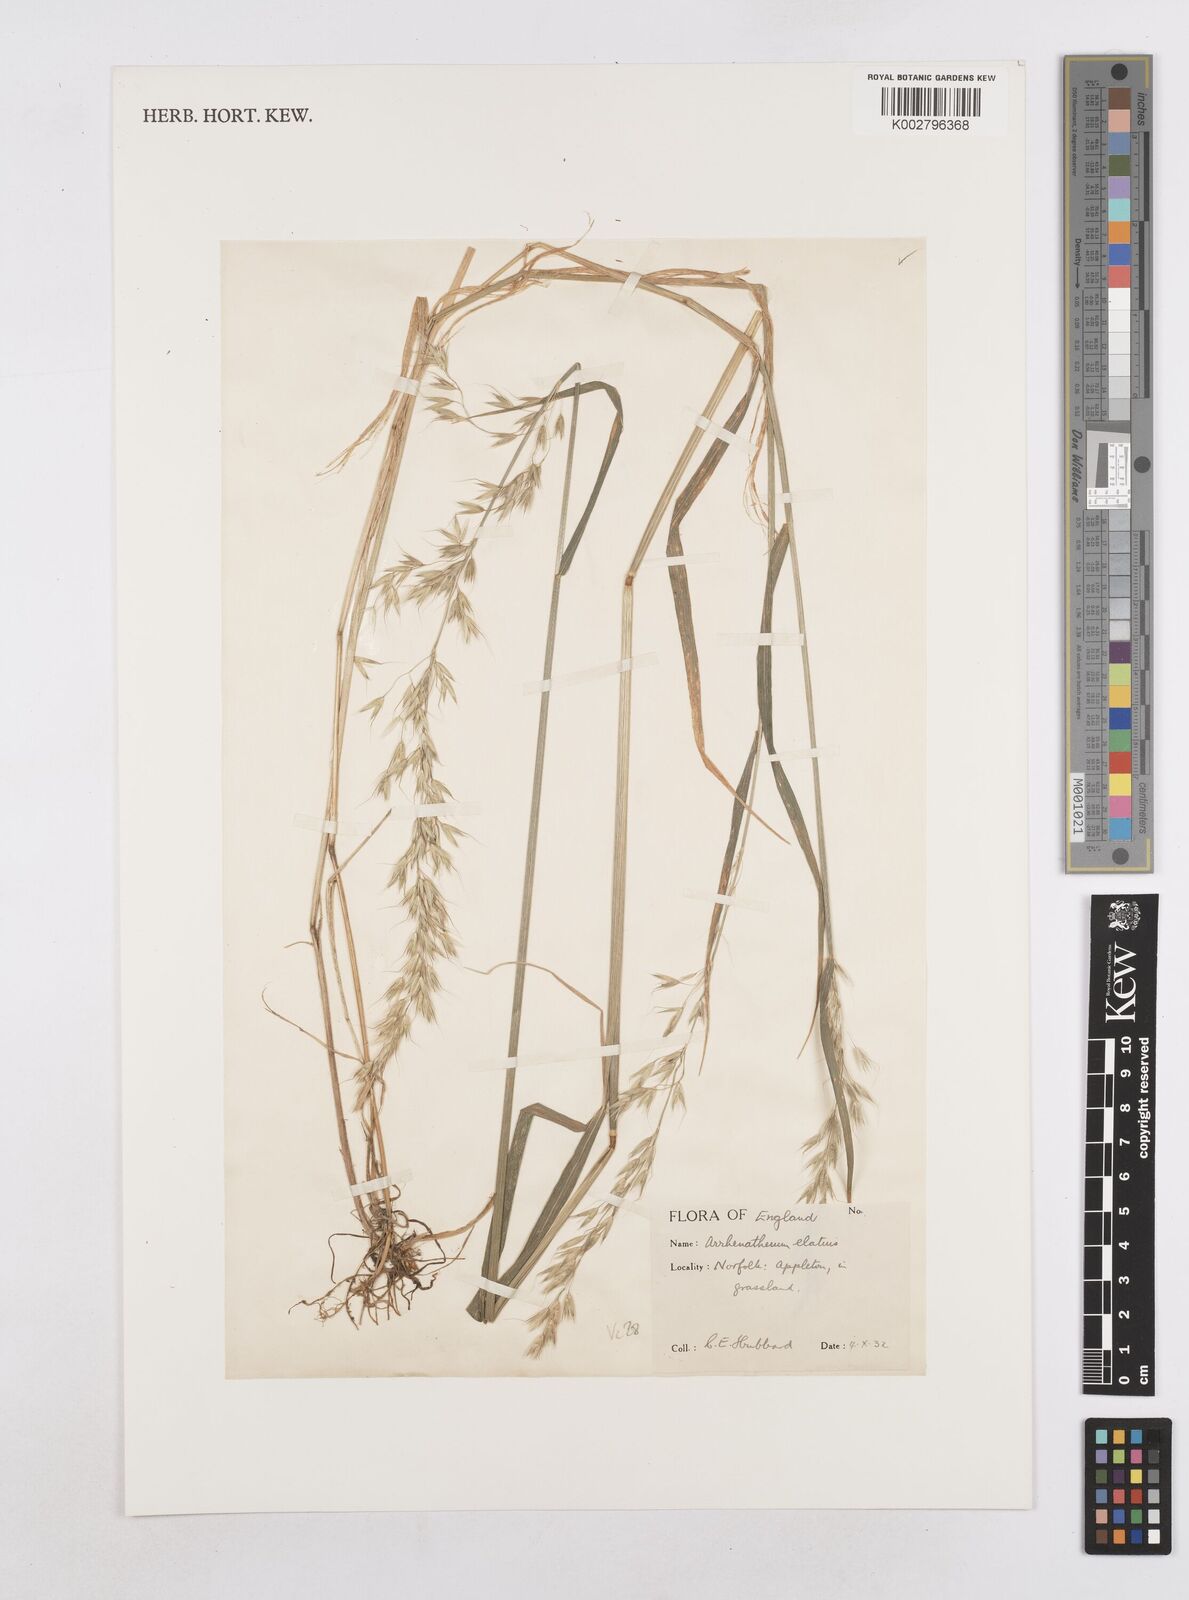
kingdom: Plantae
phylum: Tracheophyta
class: Liliopsida
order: Poales
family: Poaceae
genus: Arrhenatherum
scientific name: Arrhenatherum elatius
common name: Tall oatgrass
